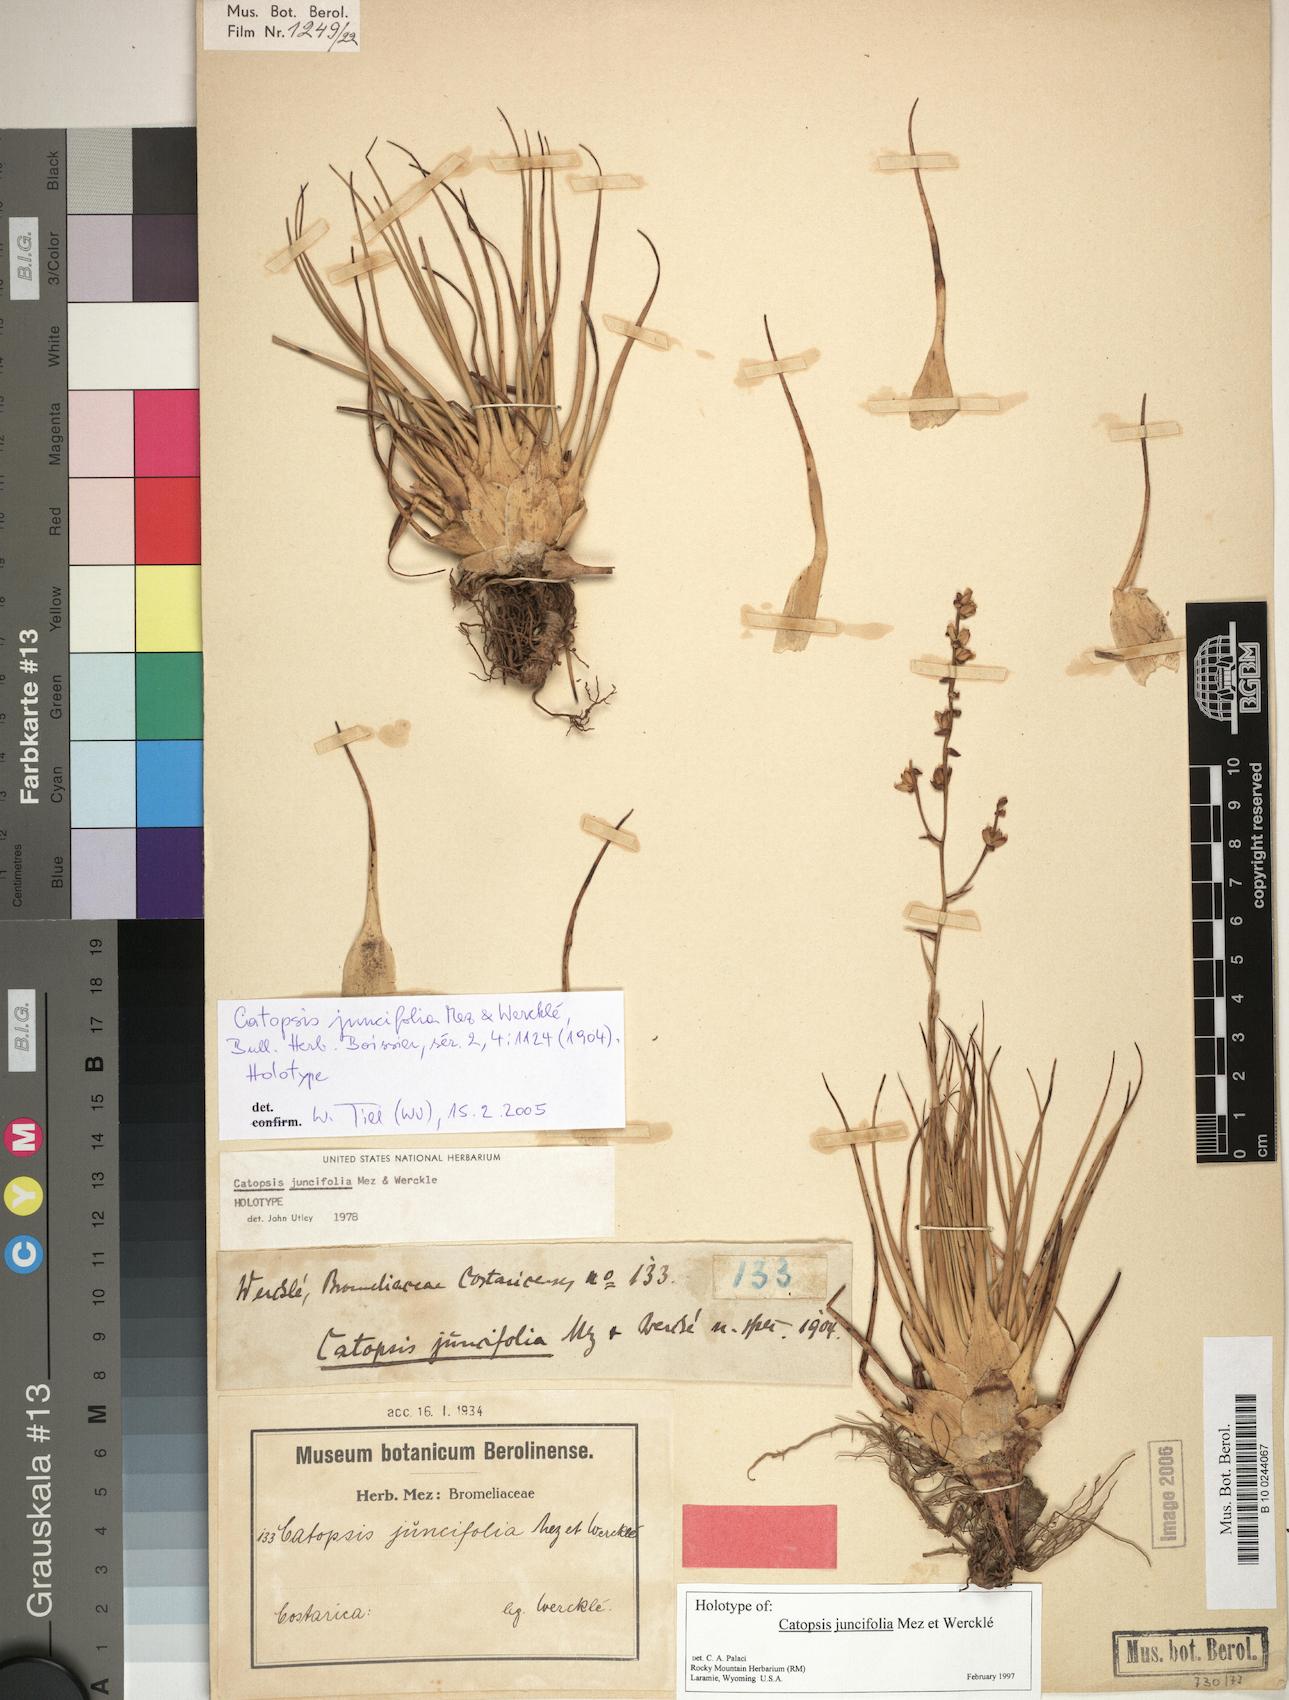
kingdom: Plantae
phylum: Tracheophyta
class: Liliopsida
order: Poales
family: Bromeliaceae
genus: Catopsis
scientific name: Catopsis juncifolia
